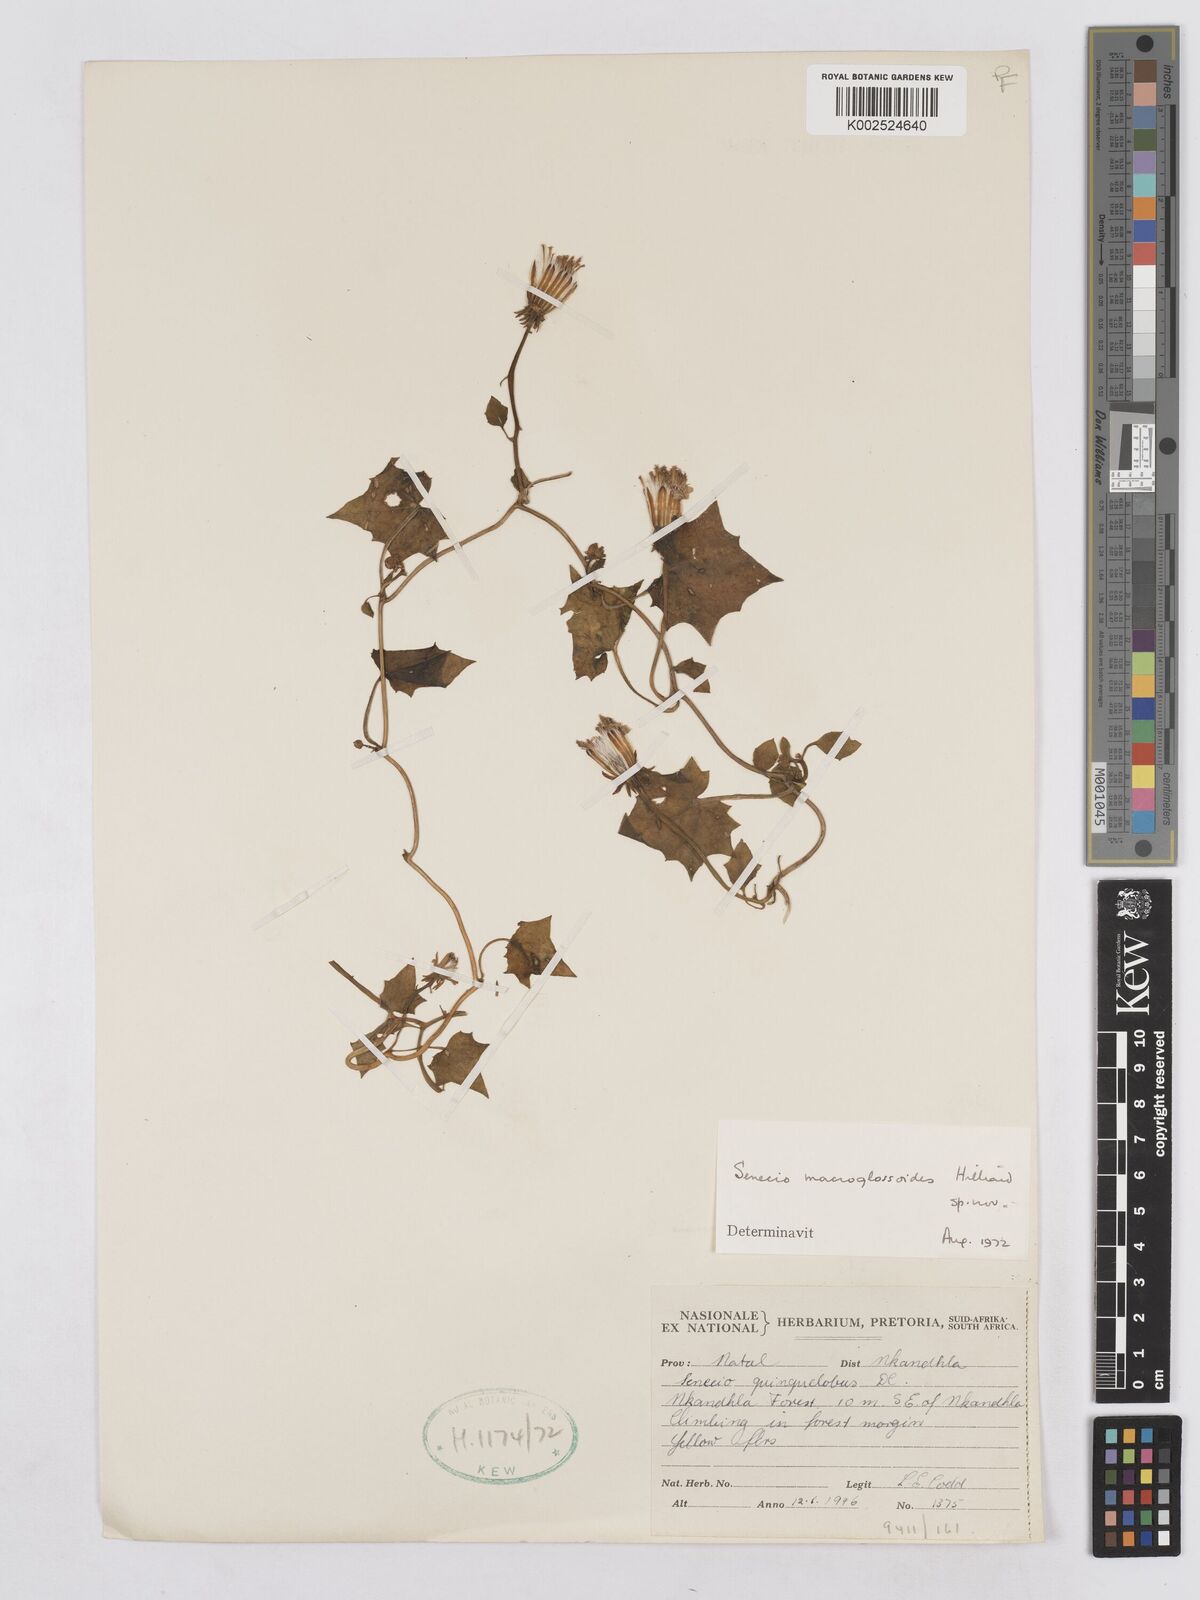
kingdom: Plantae
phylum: Tracheophyta
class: Magnoliopsida
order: Asterales
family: Asteraceae
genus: Senecio
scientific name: Senecio macroglossoides
